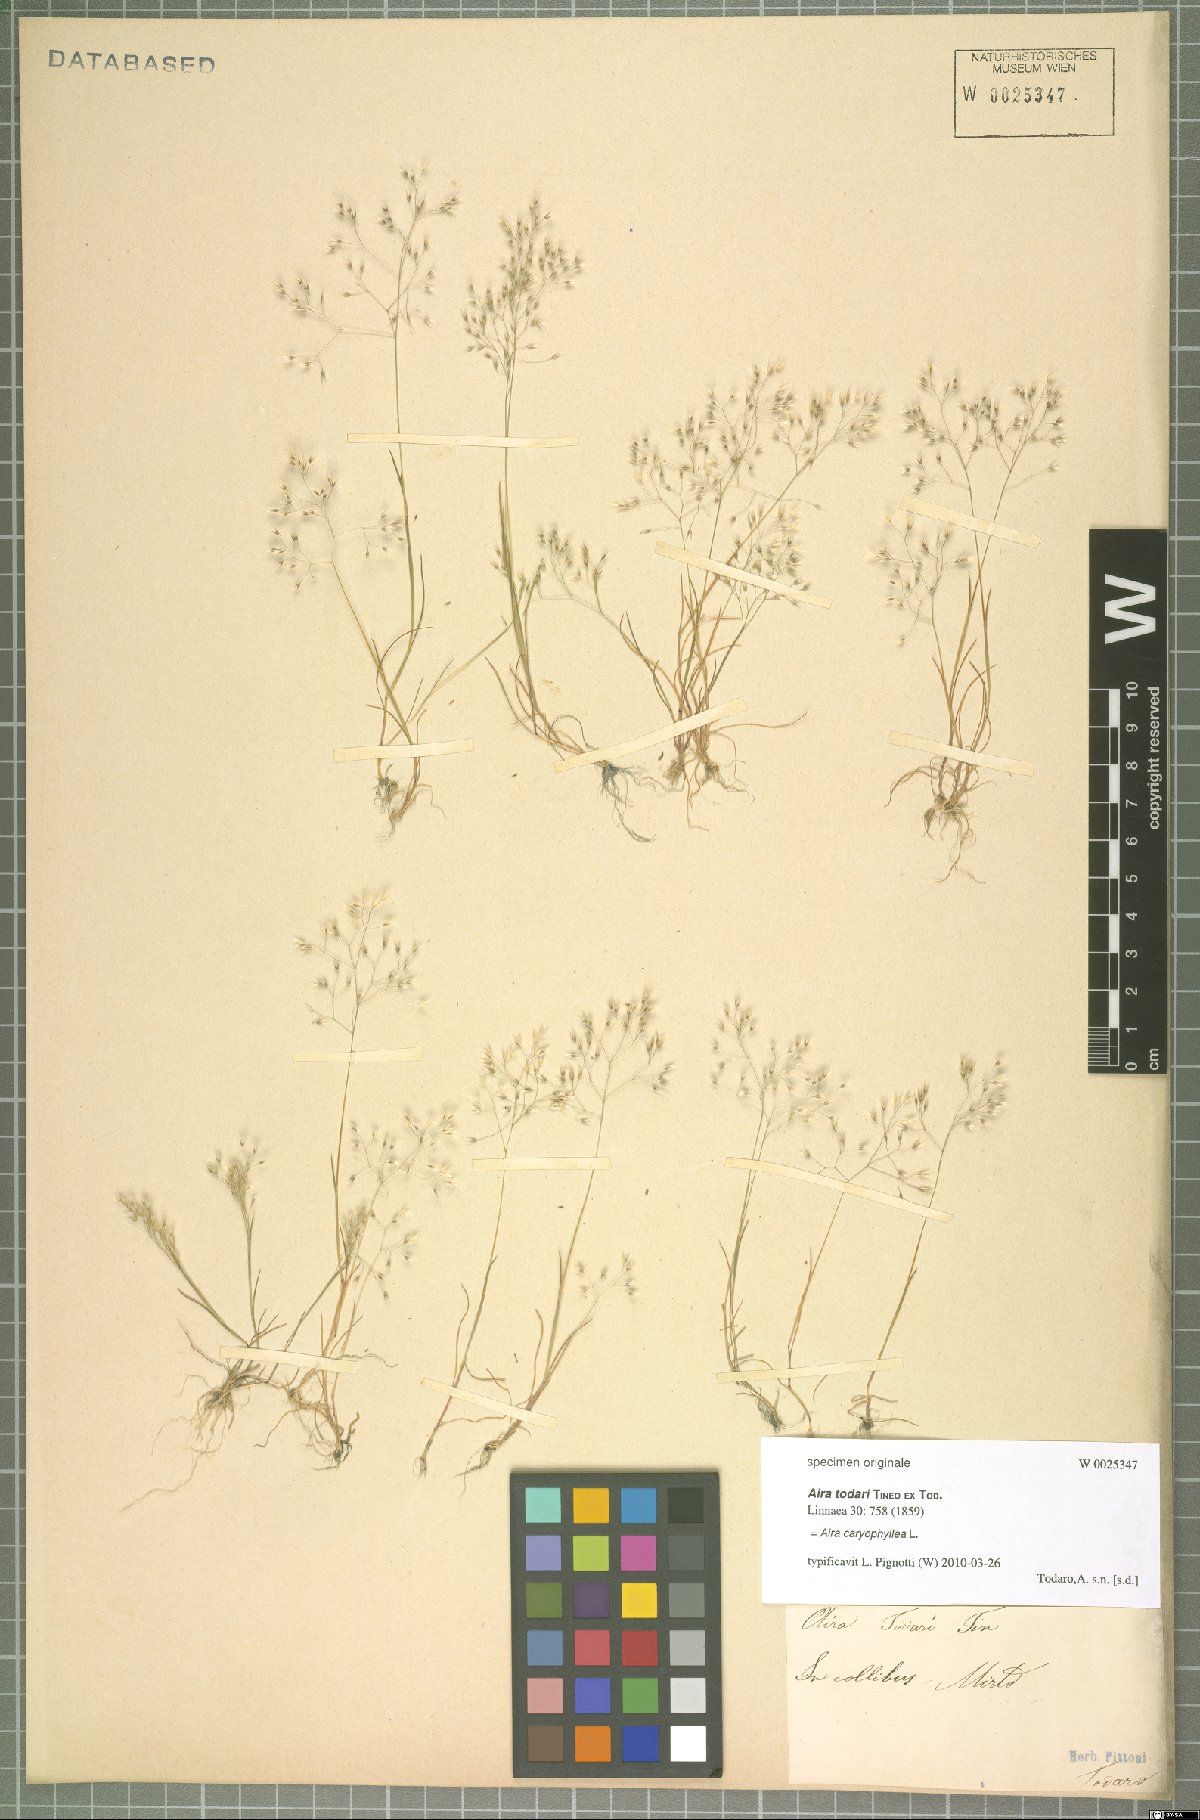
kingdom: Plantae
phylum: Tracheophyta
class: Liliopsida
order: Poales
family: Poaceae
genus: Aira
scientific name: Aira caryophyllea
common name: Silver hairgrass
